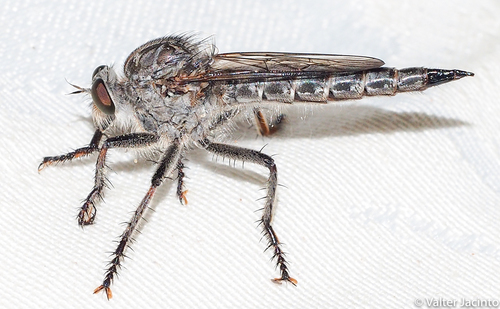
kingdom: Animalia
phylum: Arthropoda
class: Insecta
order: Diptera
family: Asilidae
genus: Machimus
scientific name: Machimus setibarbus
